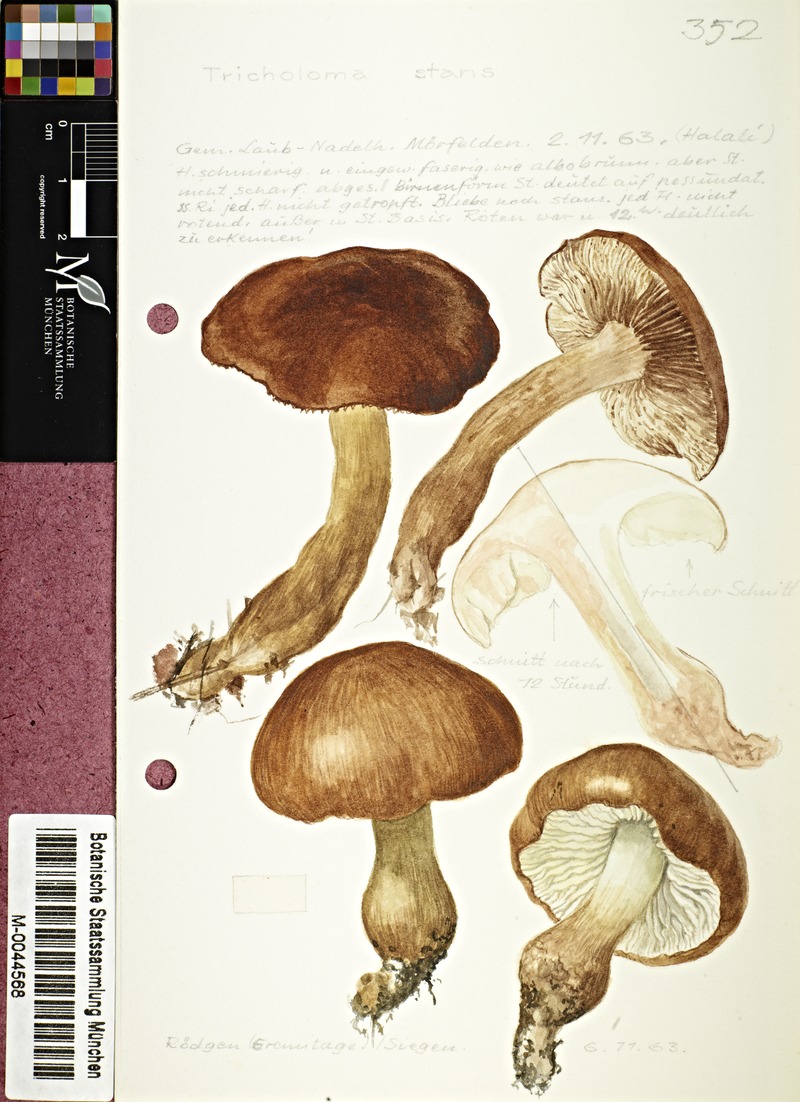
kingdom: Fungi
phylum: Basidiomycota
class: Agaricomycetes
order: Agaricales
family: Tricholomataceae
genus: Tricholoma
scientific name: Tricholoma stans
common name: Upright knight
